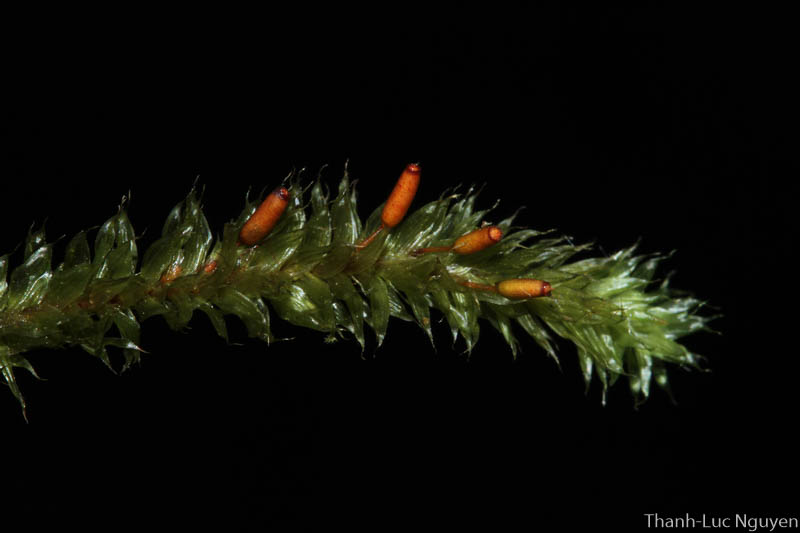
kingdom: Plantae
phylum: Bryophyta
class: Bryopsida
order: Ptychomniales
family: Ptychomniaceae
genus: Garovaglia
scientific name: Garovaglia
